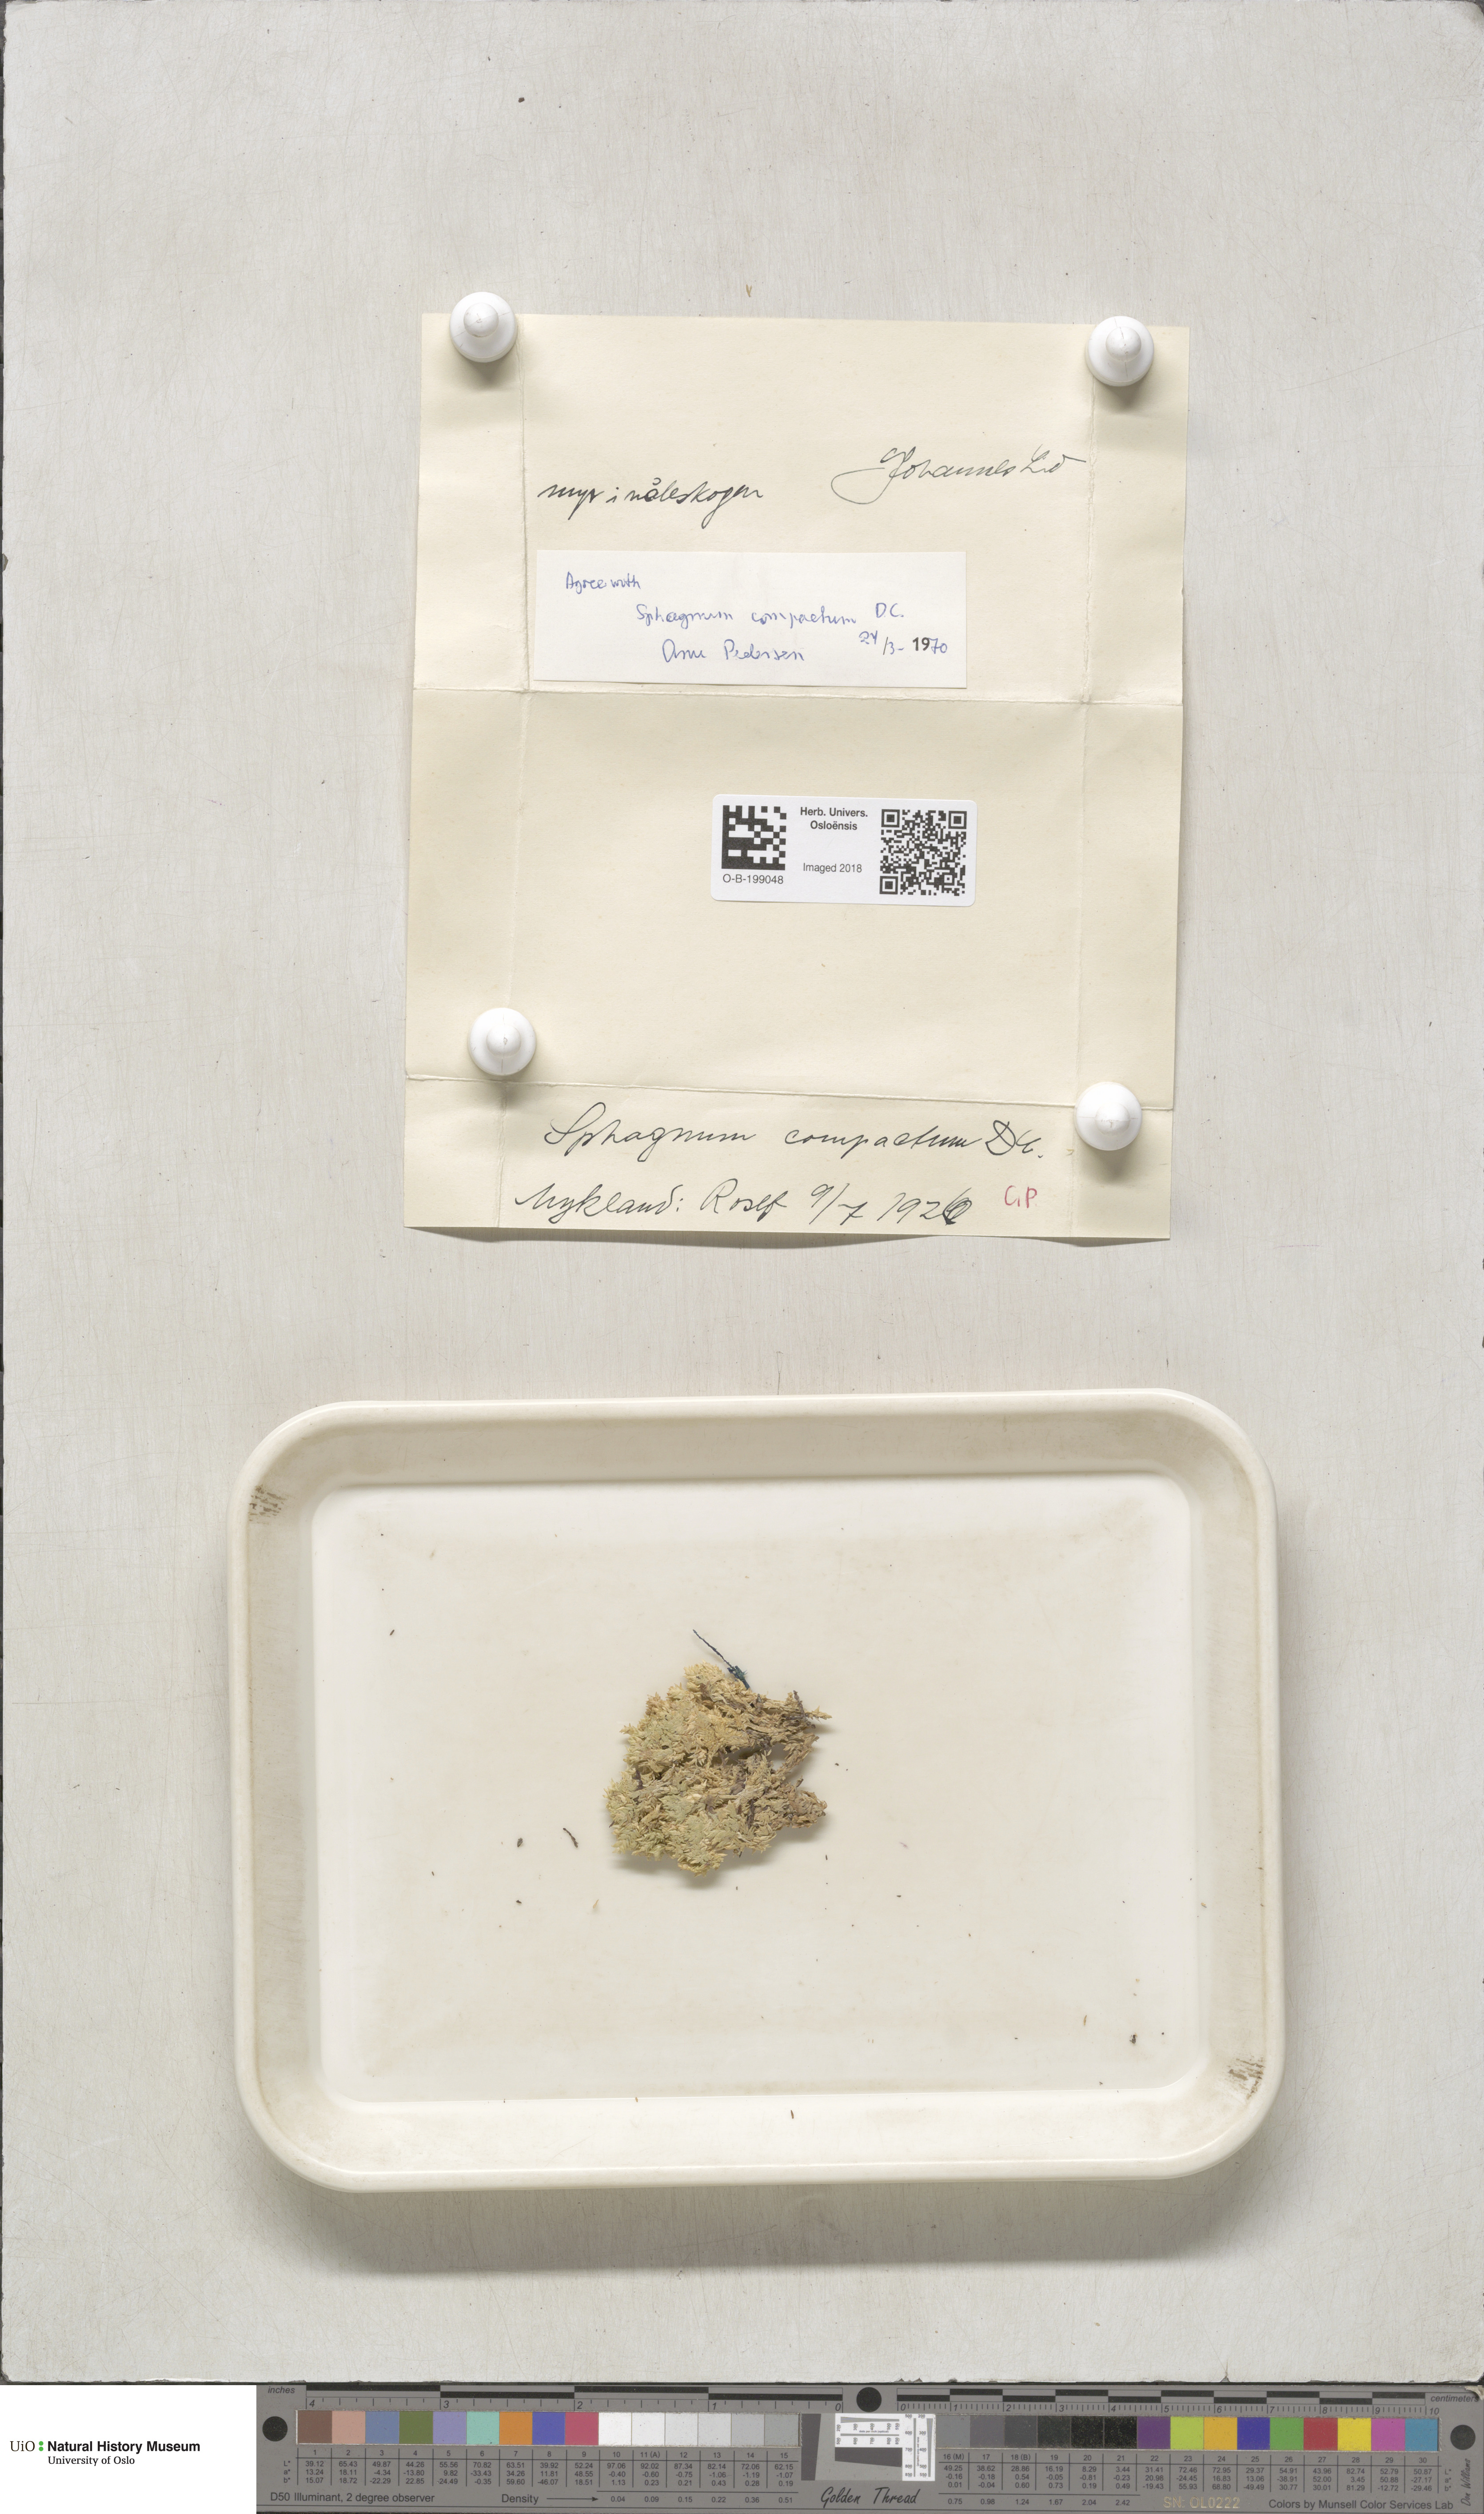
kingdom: Plantae
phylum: Bryophyta
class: Sphagnopsida
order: Sphagnales
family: Sphagnaceae
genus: Sphagnum
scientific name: Sphagnum compactum
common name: Compact peat moss
